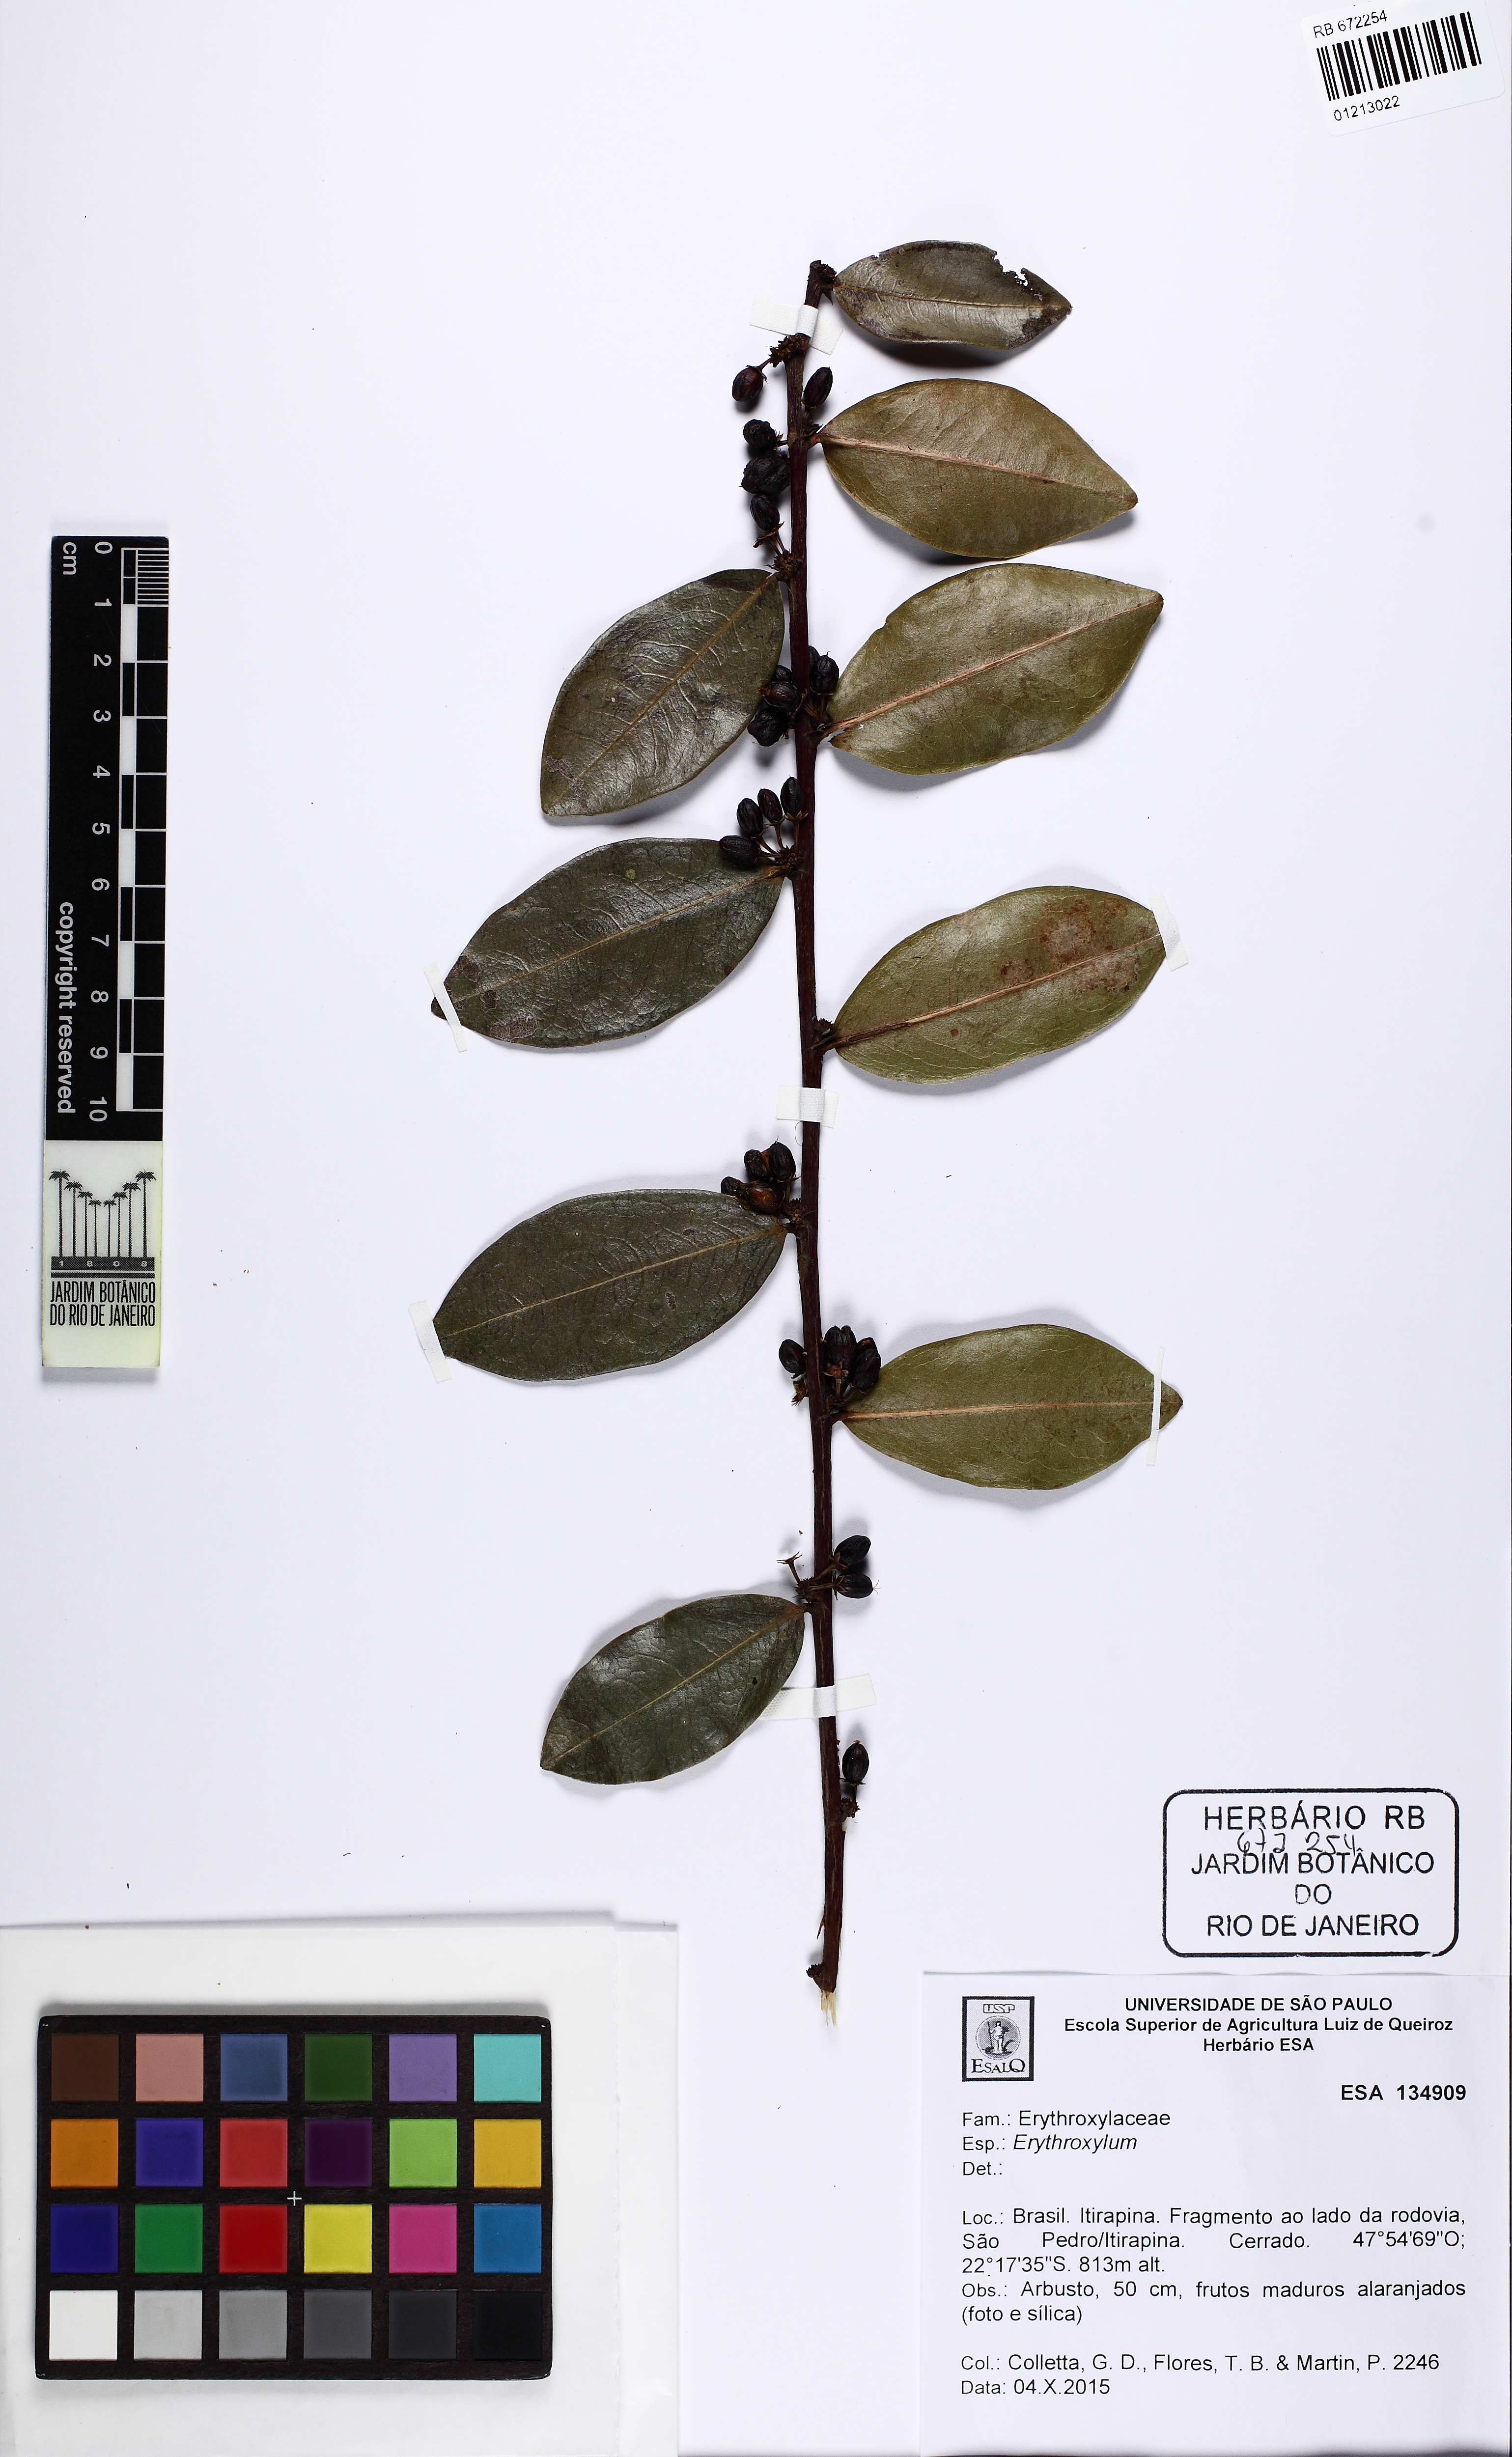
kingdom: Plantae
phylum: Tracheophyta
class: Magnoliopsida
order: Malpighiales
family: Erythroxylaceae
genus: Erythroxylum
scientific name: Erythroxylum
